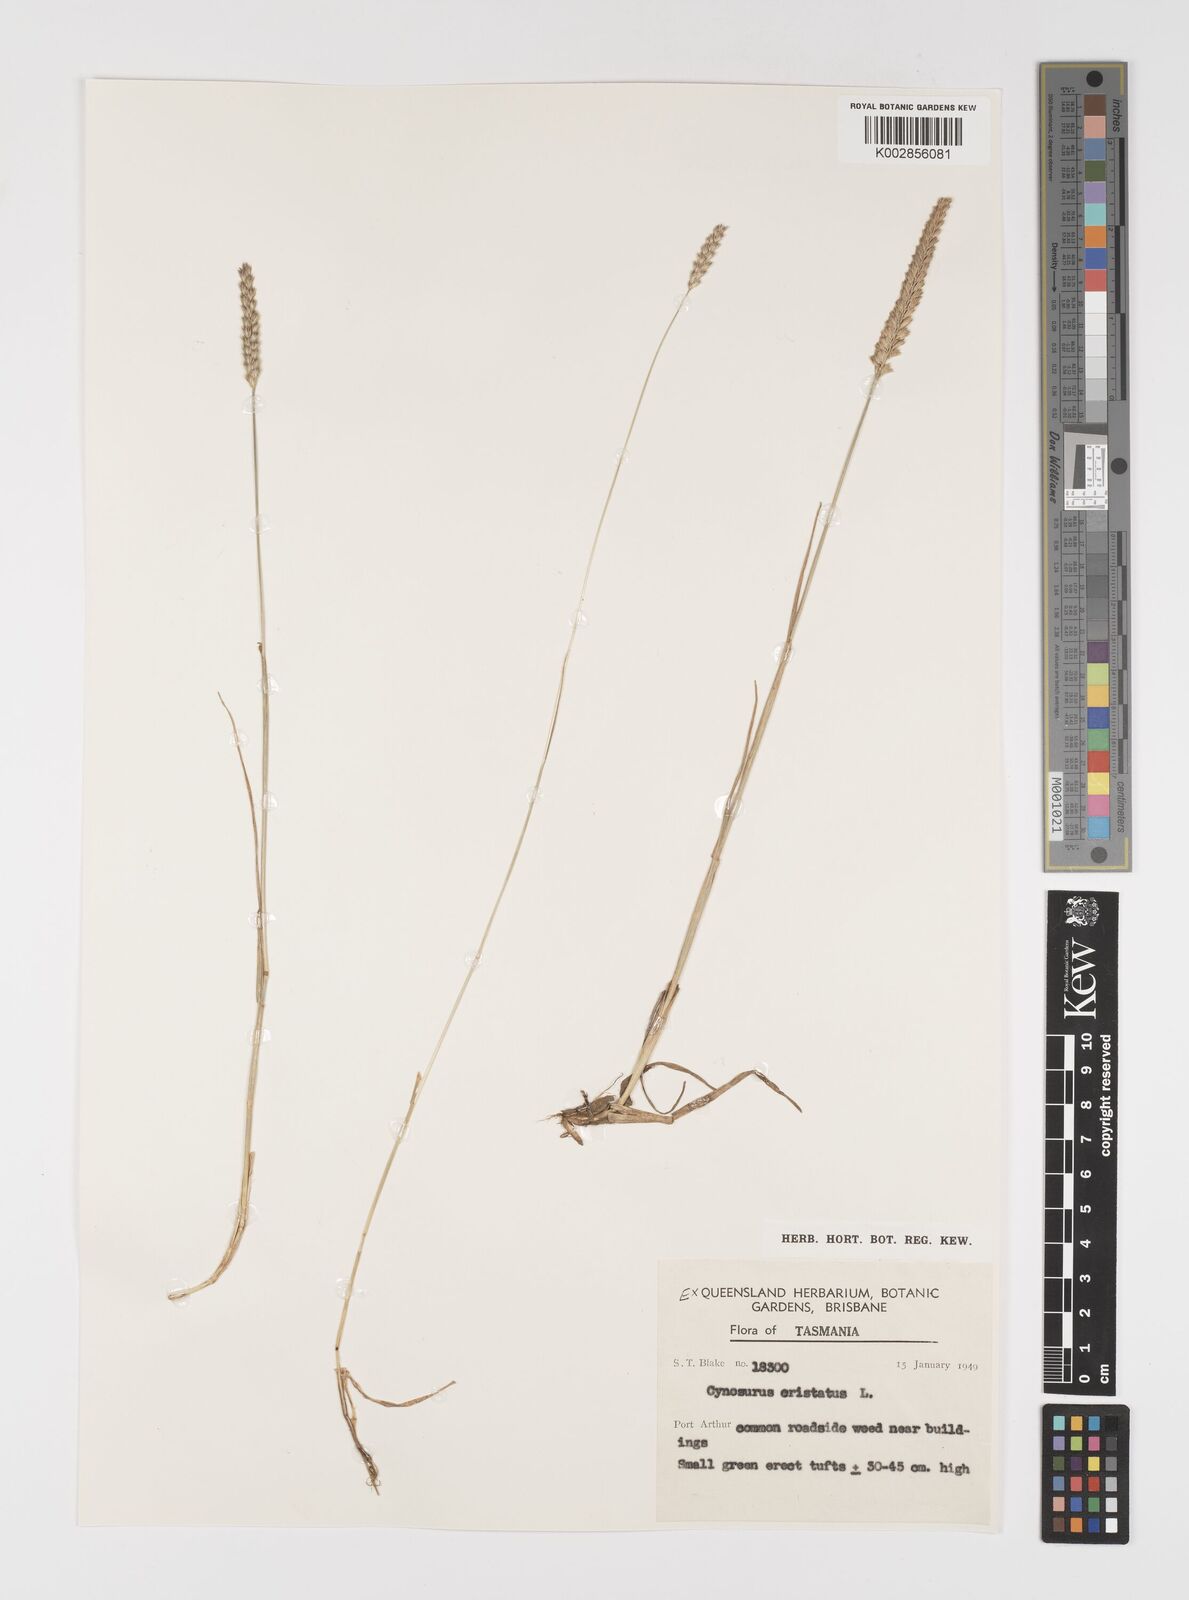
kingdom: Plantae
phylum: Tracheophyta
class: Liliopsida
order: Poales
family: Poaceae
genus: Cynosurus
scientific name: Cynosurus cristatus
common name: Crested dog's-tail
